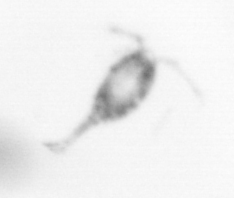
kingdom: Animalia
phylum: Arthropoda
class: Copepoda
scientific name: Copepoda
